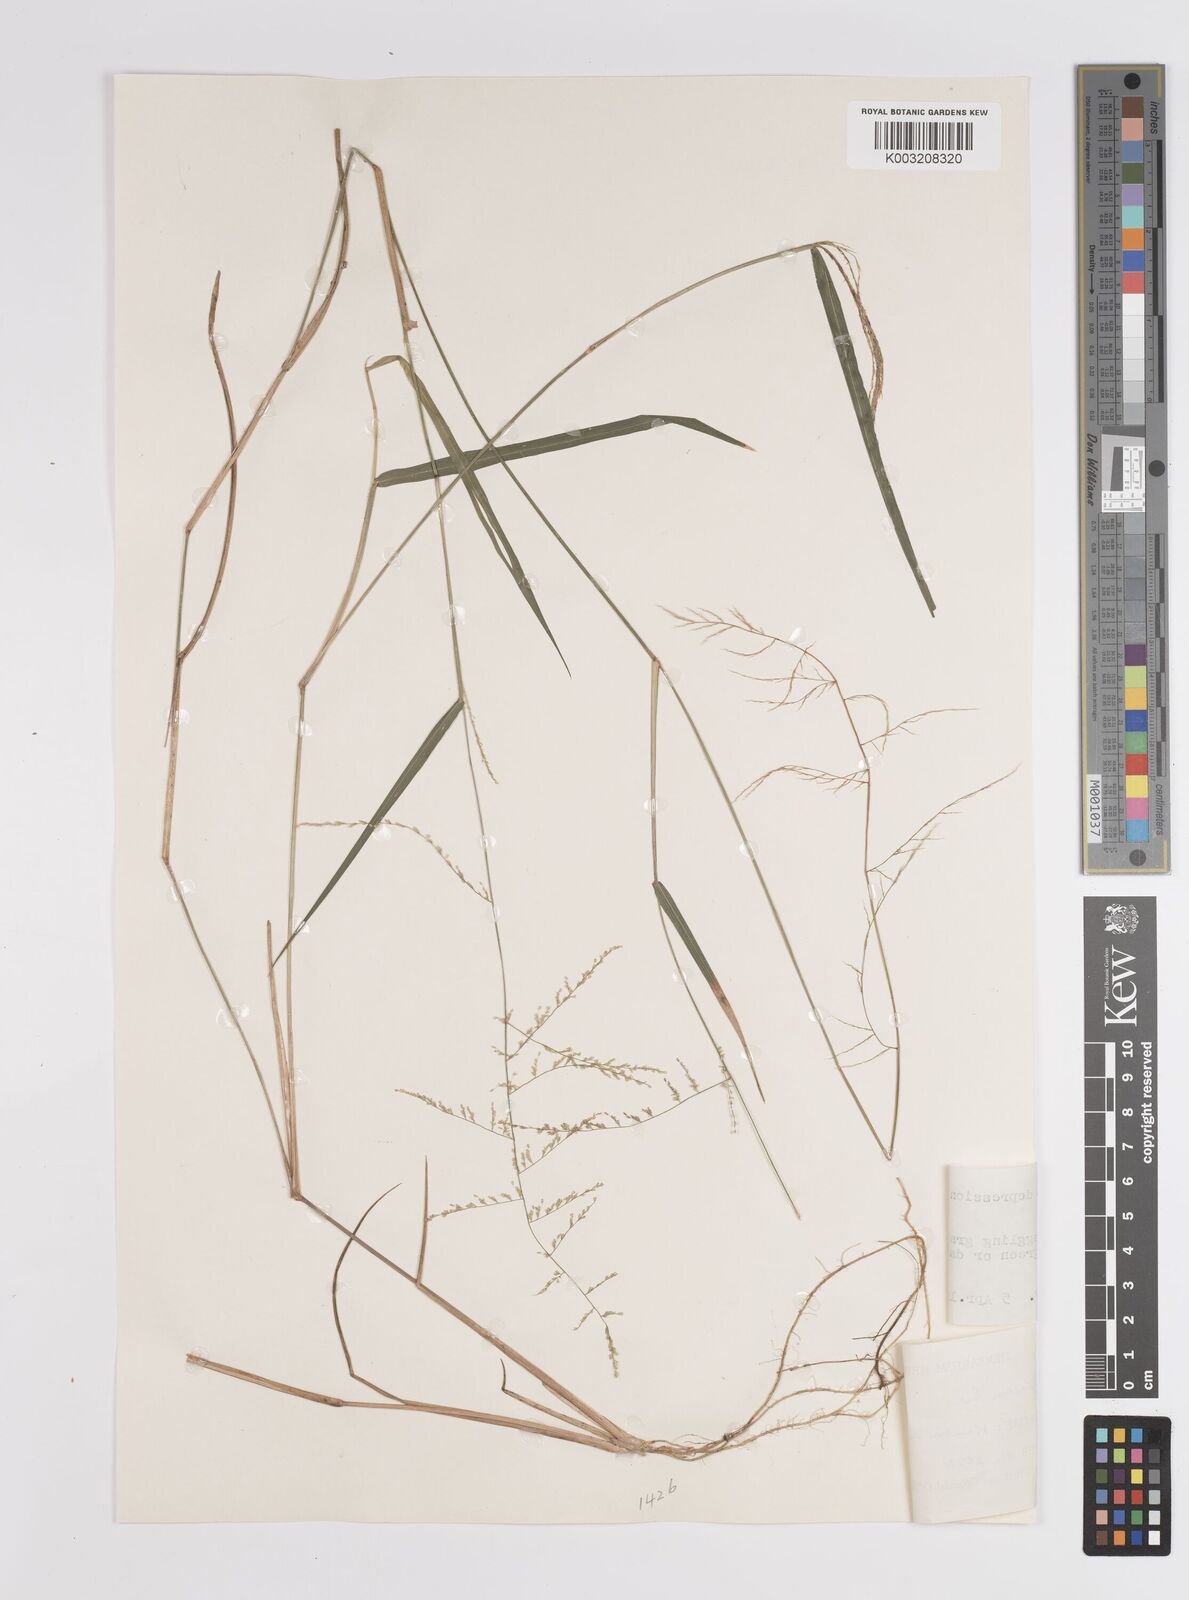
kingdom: Plantae
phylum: Tracheophyta
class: Liliopsida
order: Poales
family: Poaceae
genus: Steinchisma
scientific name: Steinchisma laxum
